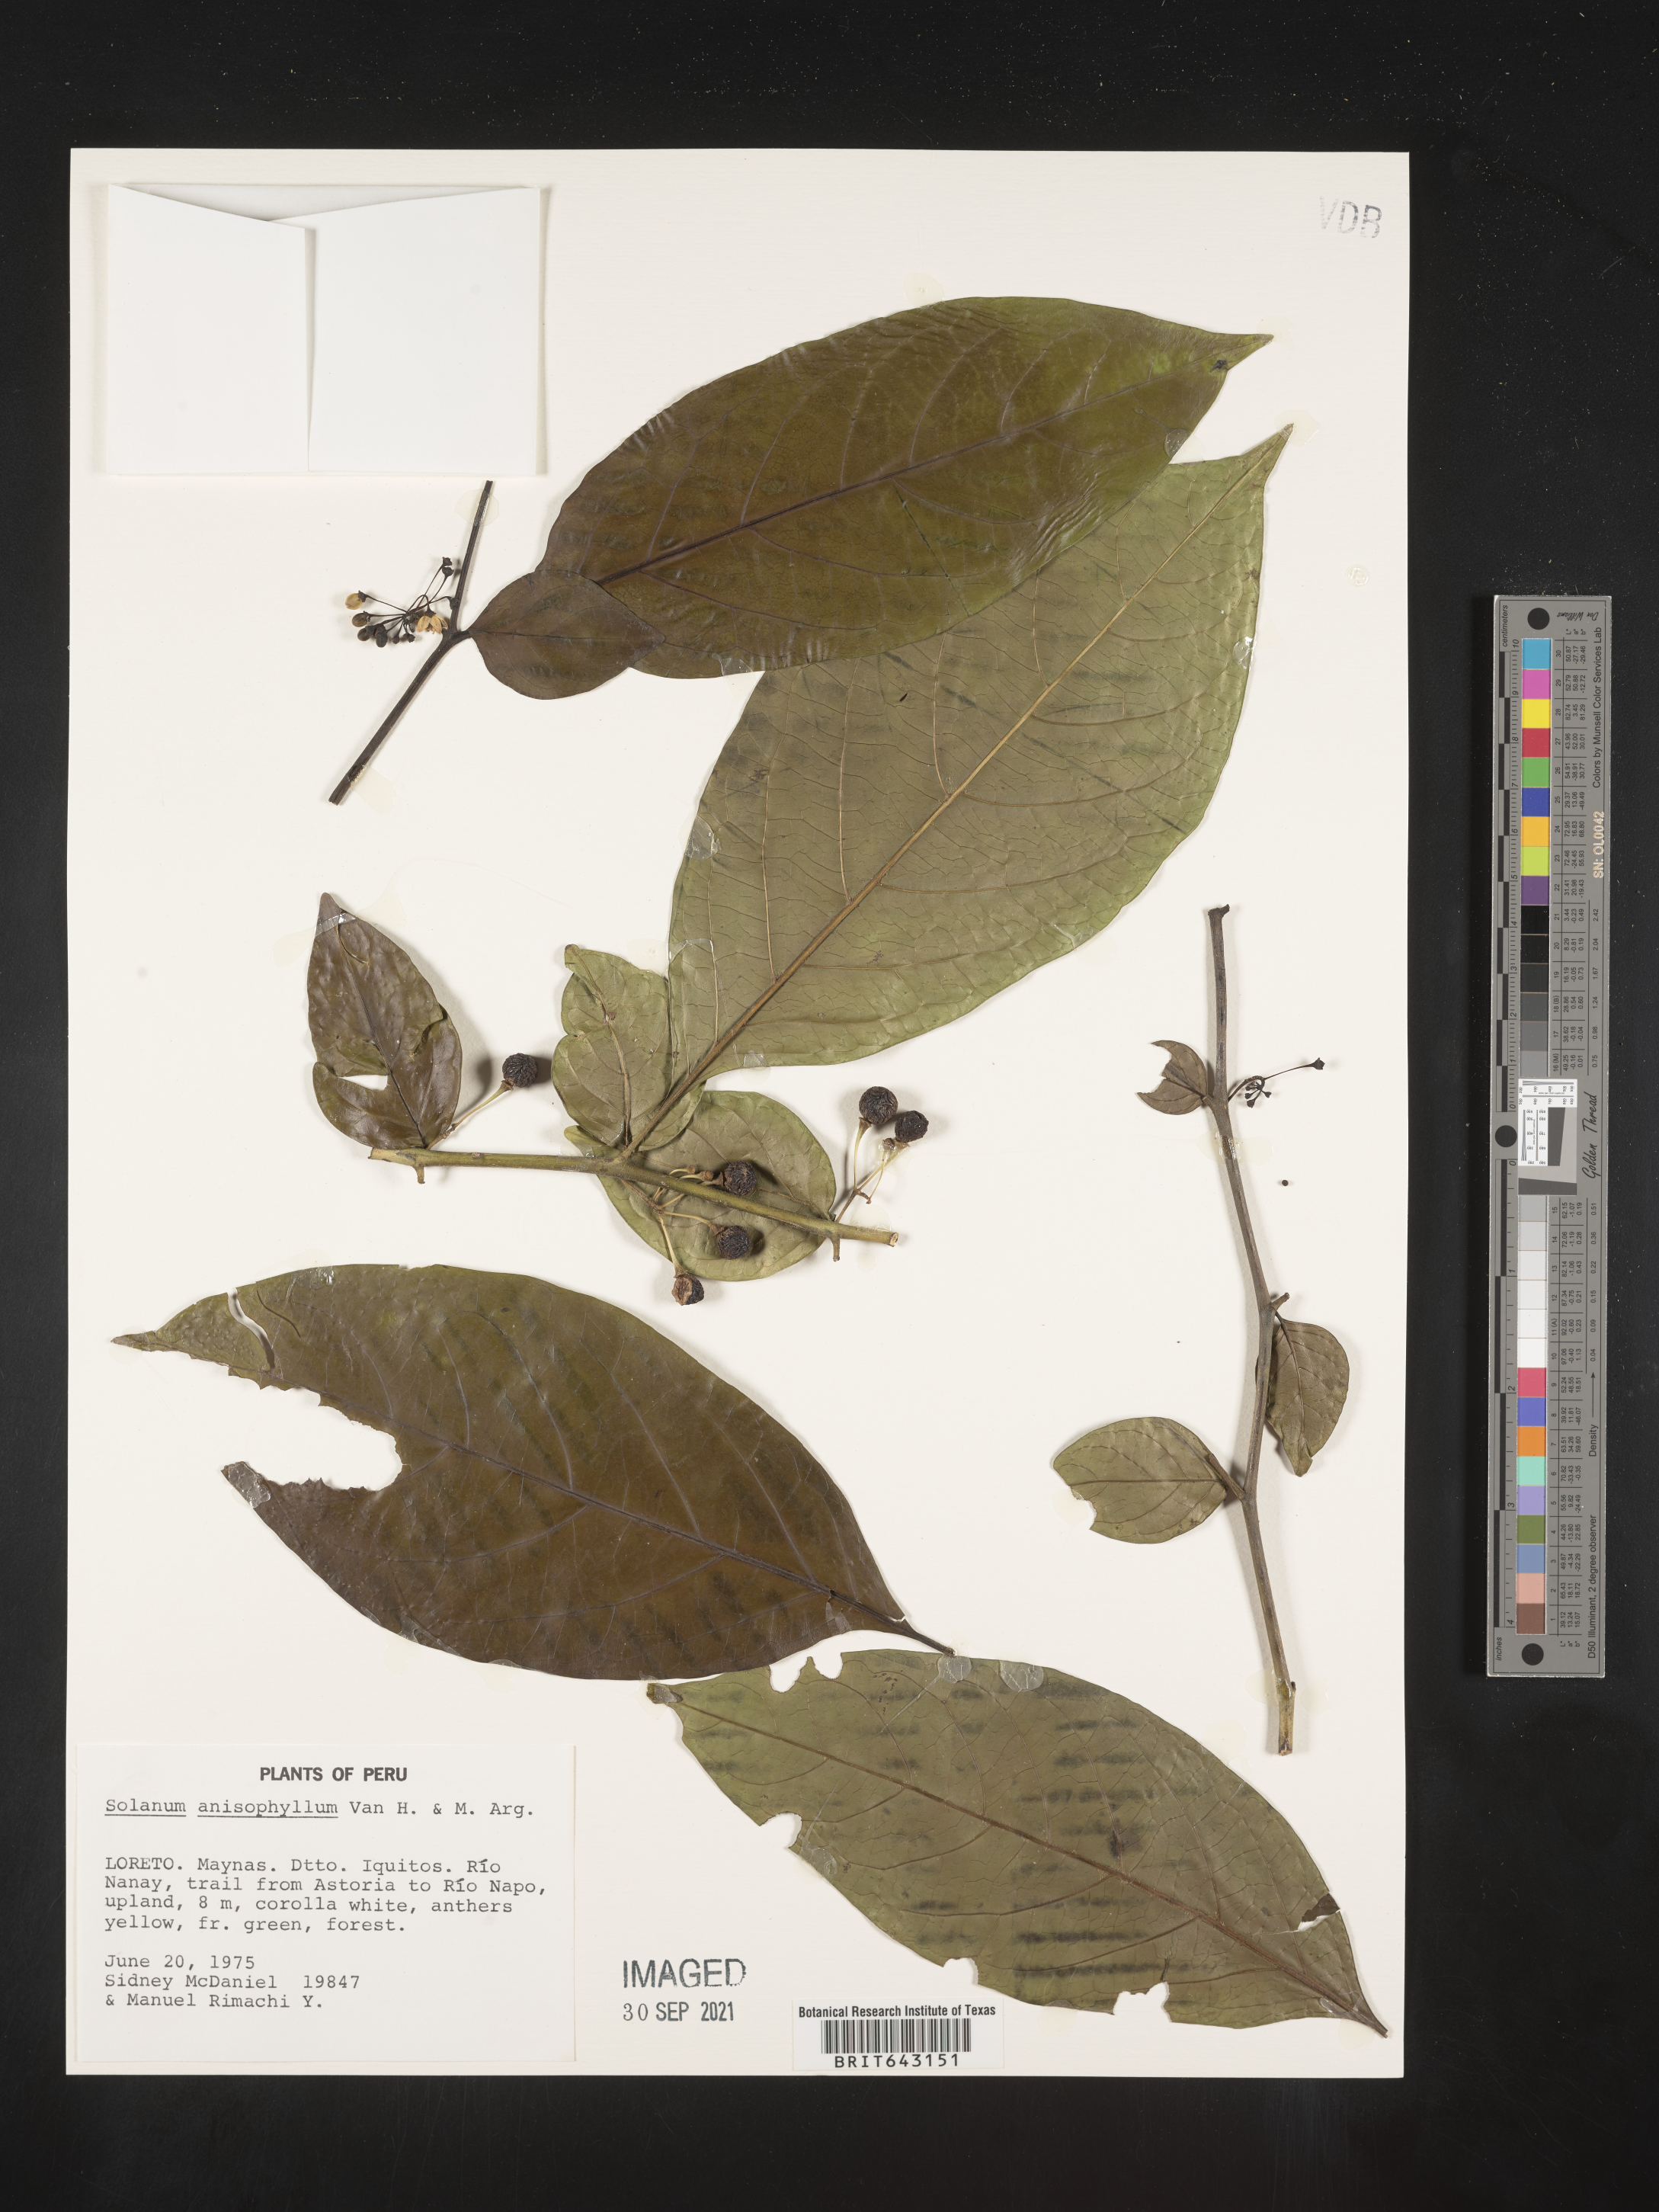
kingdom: Plantae
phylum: Tracheophyta
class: Magnoliopsida
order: Solanales
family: Solanaceae
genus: Solanum
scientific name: Solanum
